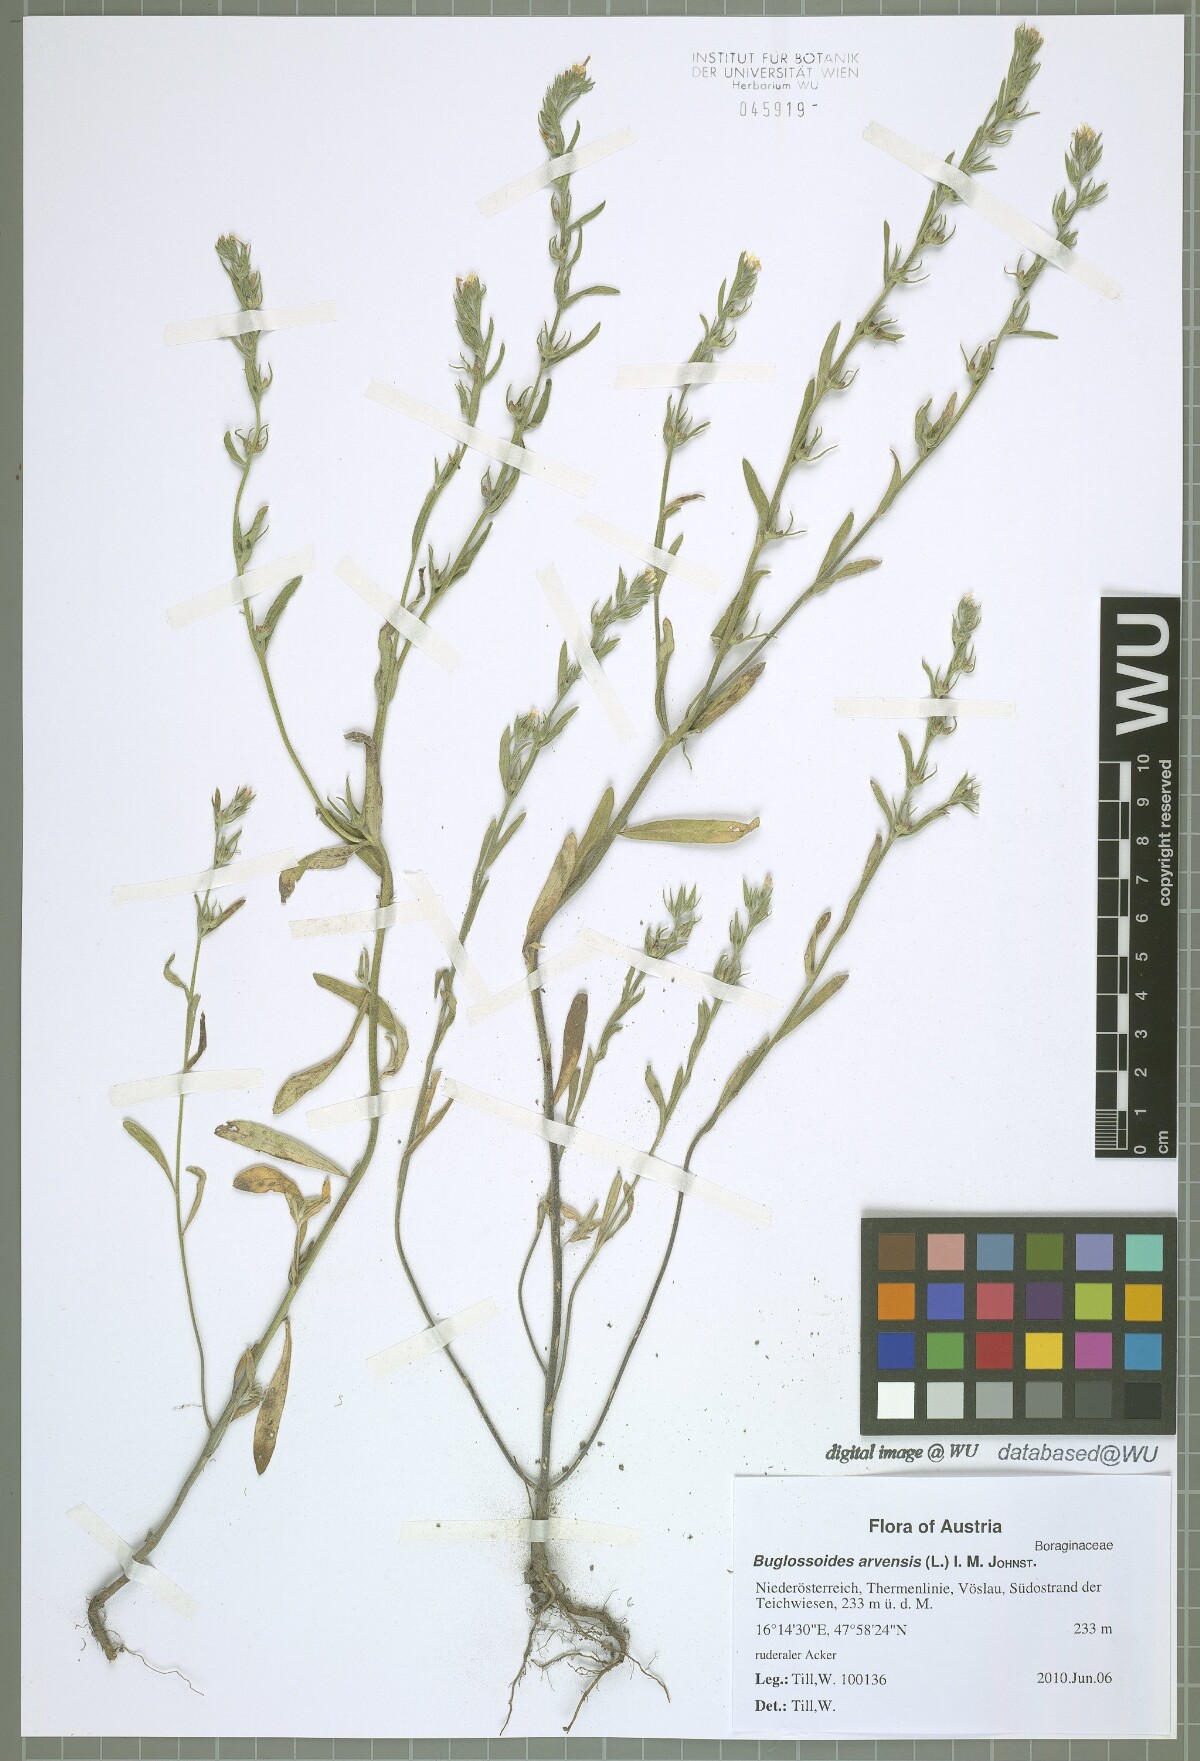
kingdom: Plantae
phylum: Tracheophyta
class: Magnoliopsida
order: Boraginales
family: Boraginaceae
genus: Buglossoides
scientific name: Buglossoides arvensis
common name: Corn gromwell
